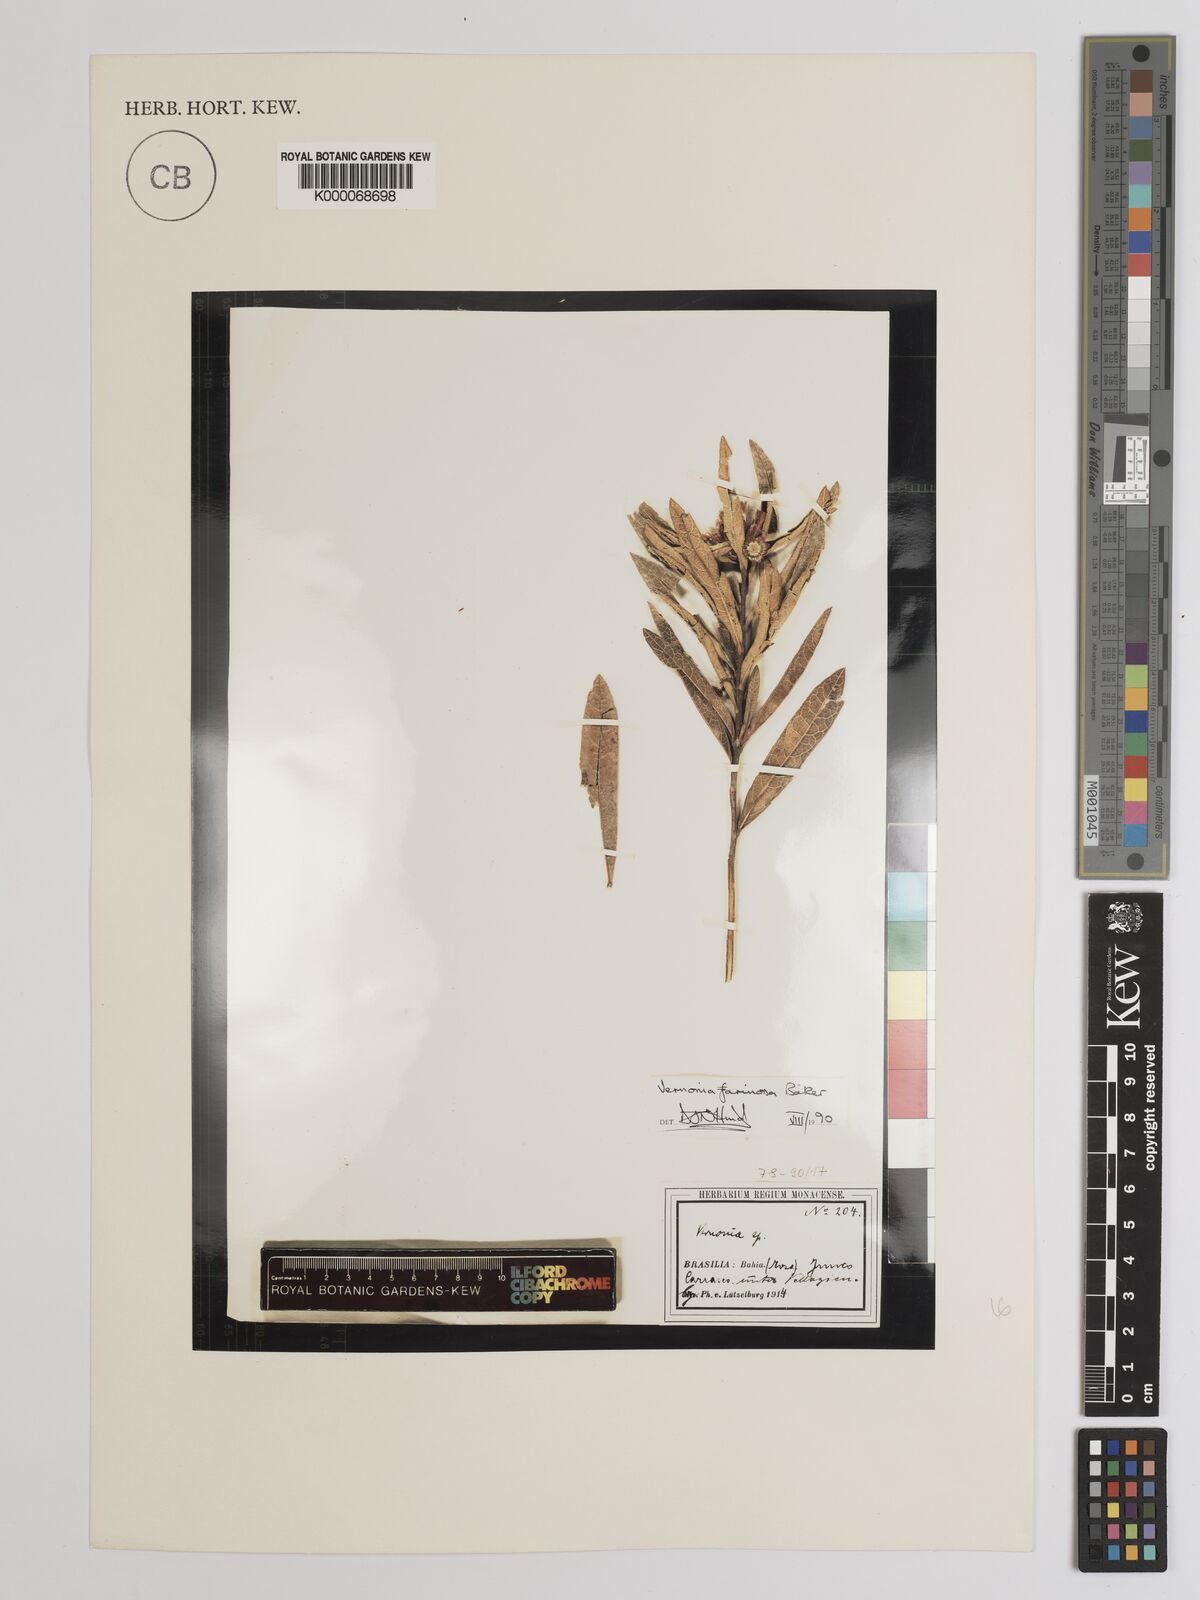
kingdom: Plantae
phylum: Tracheophyta
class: Magnoliopsida
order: Asterales
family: Asteraceae
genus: Lessingianthus
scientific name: Lessingianthus farinosus
